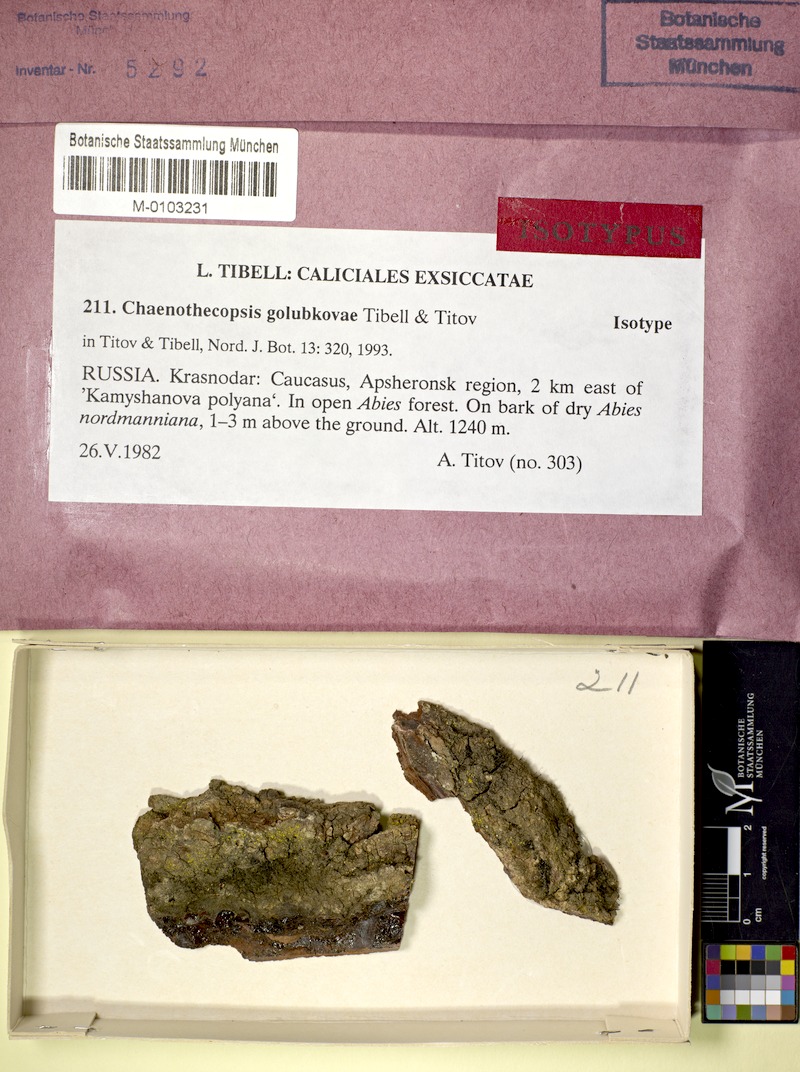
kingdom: Fungi
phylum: Ascomycota
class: Eurotiomycetes
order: Mycocaliciales
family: Mycocaliciaceae
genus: Chaenothecopsis
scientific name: Chaenothecopsis golubkovae
